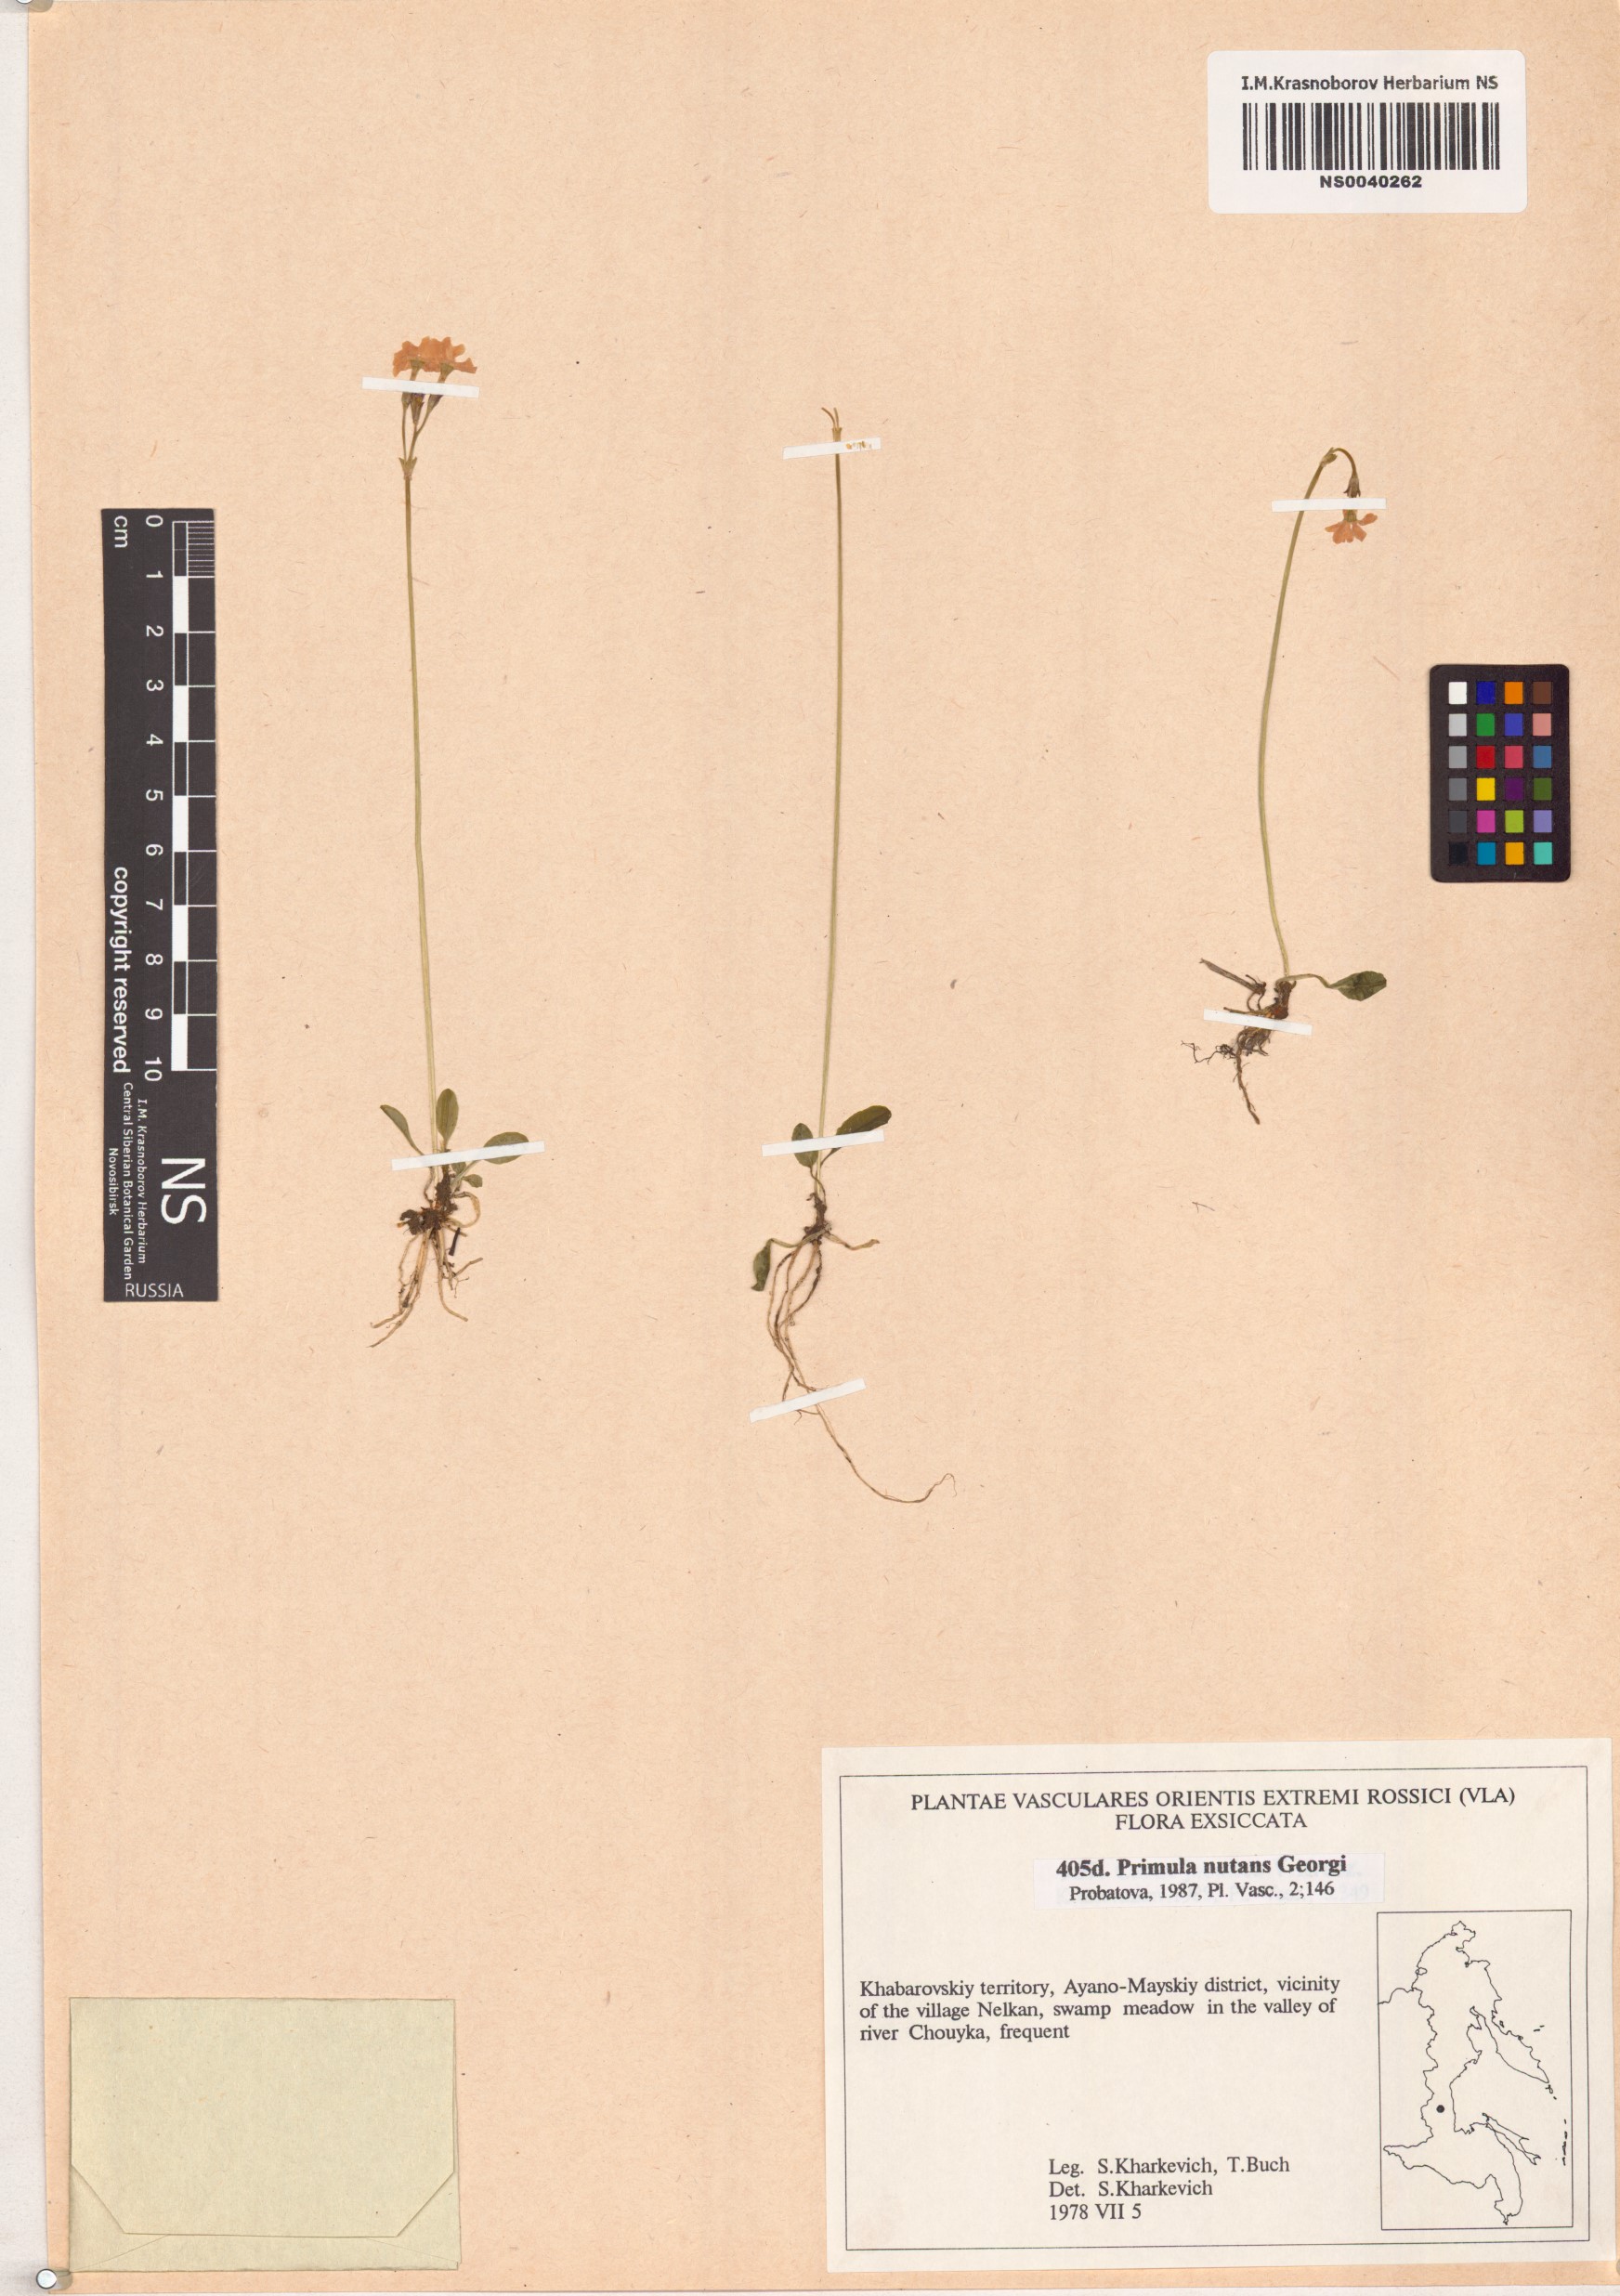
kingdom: Plantae
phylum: Tracheophyta
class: Magnoliopsida
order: Ericales
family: Primulaceae
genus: Primula
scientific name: Primula nutans
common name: Siberian primrose
